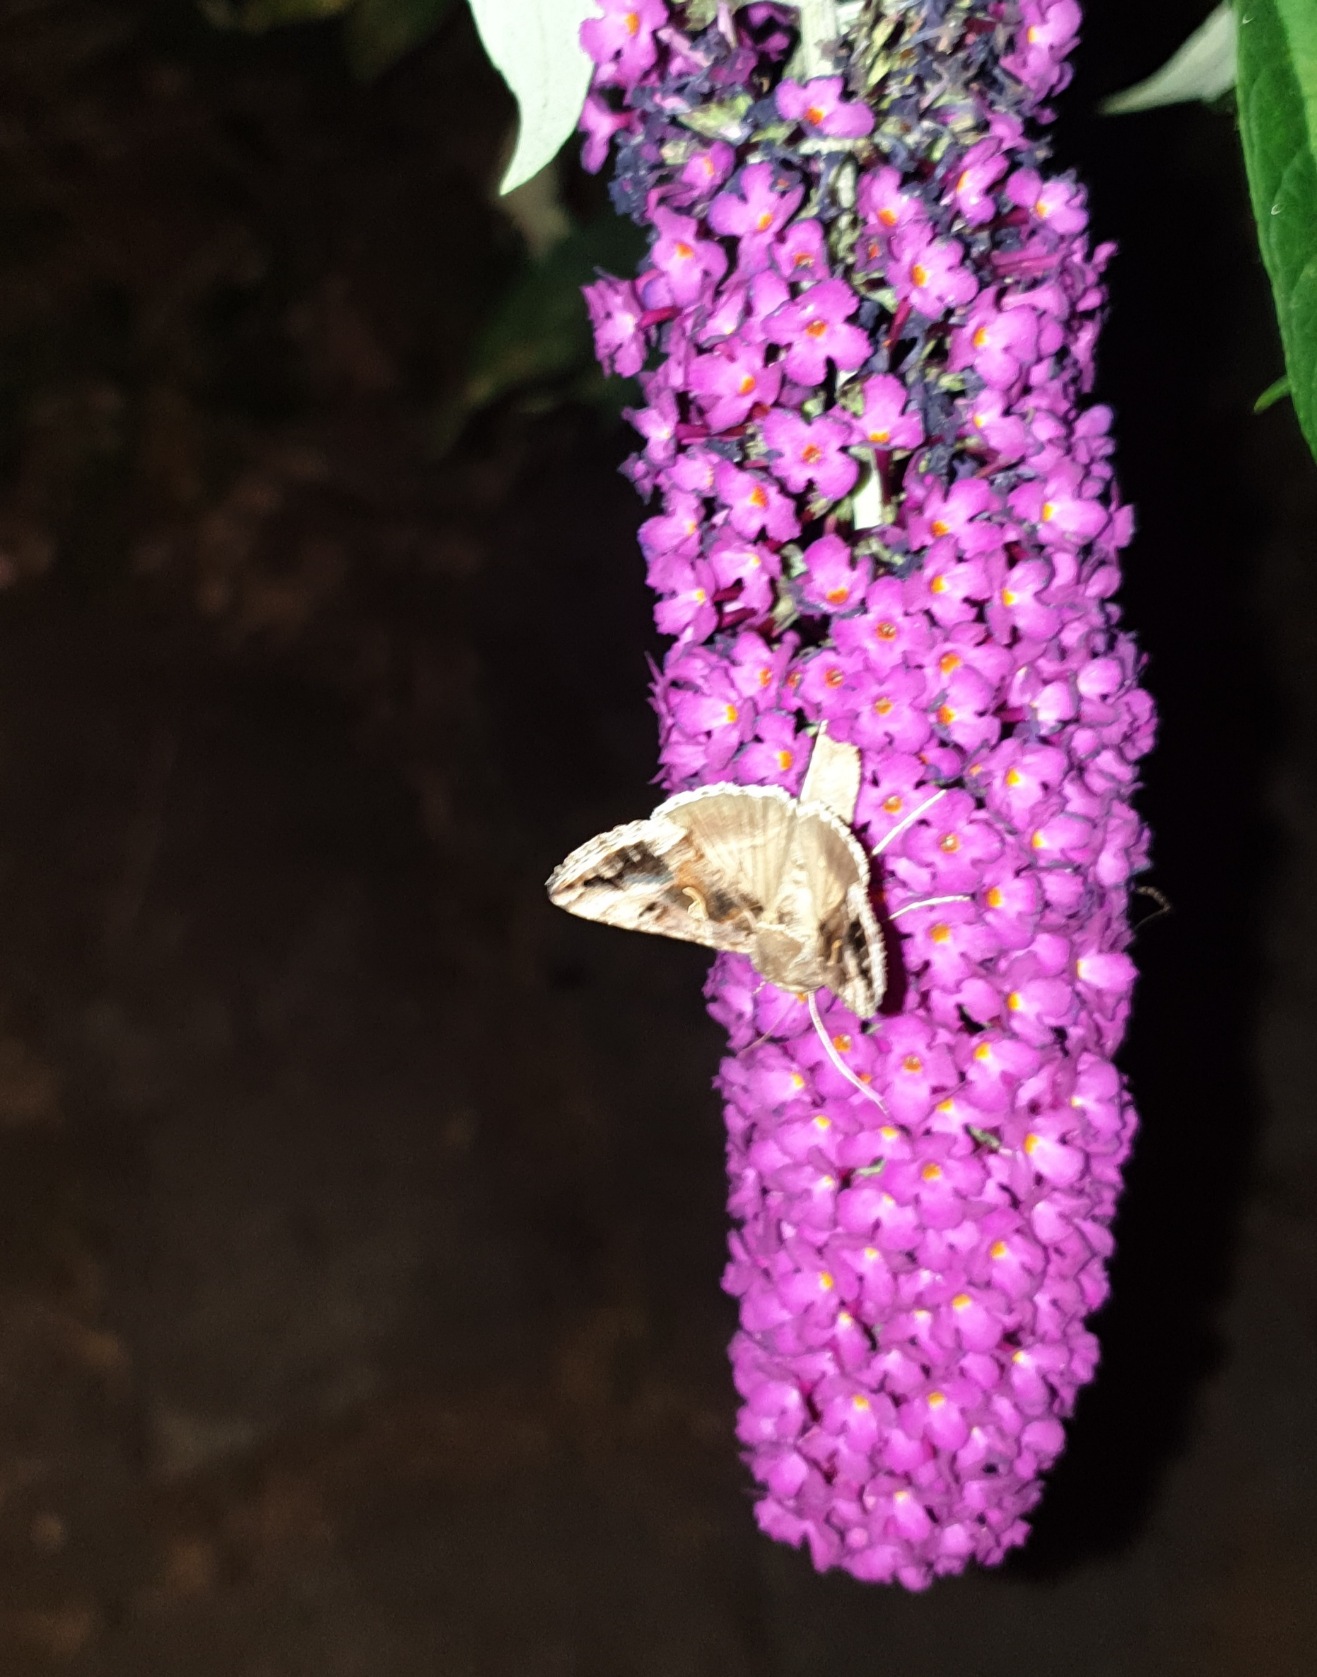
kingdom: Animalia
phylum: Arthropoda
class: Insecta
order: Lepidoptera
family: Noctuidae
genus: Autographa
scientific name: Autographa gamma
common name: Gammaugle
